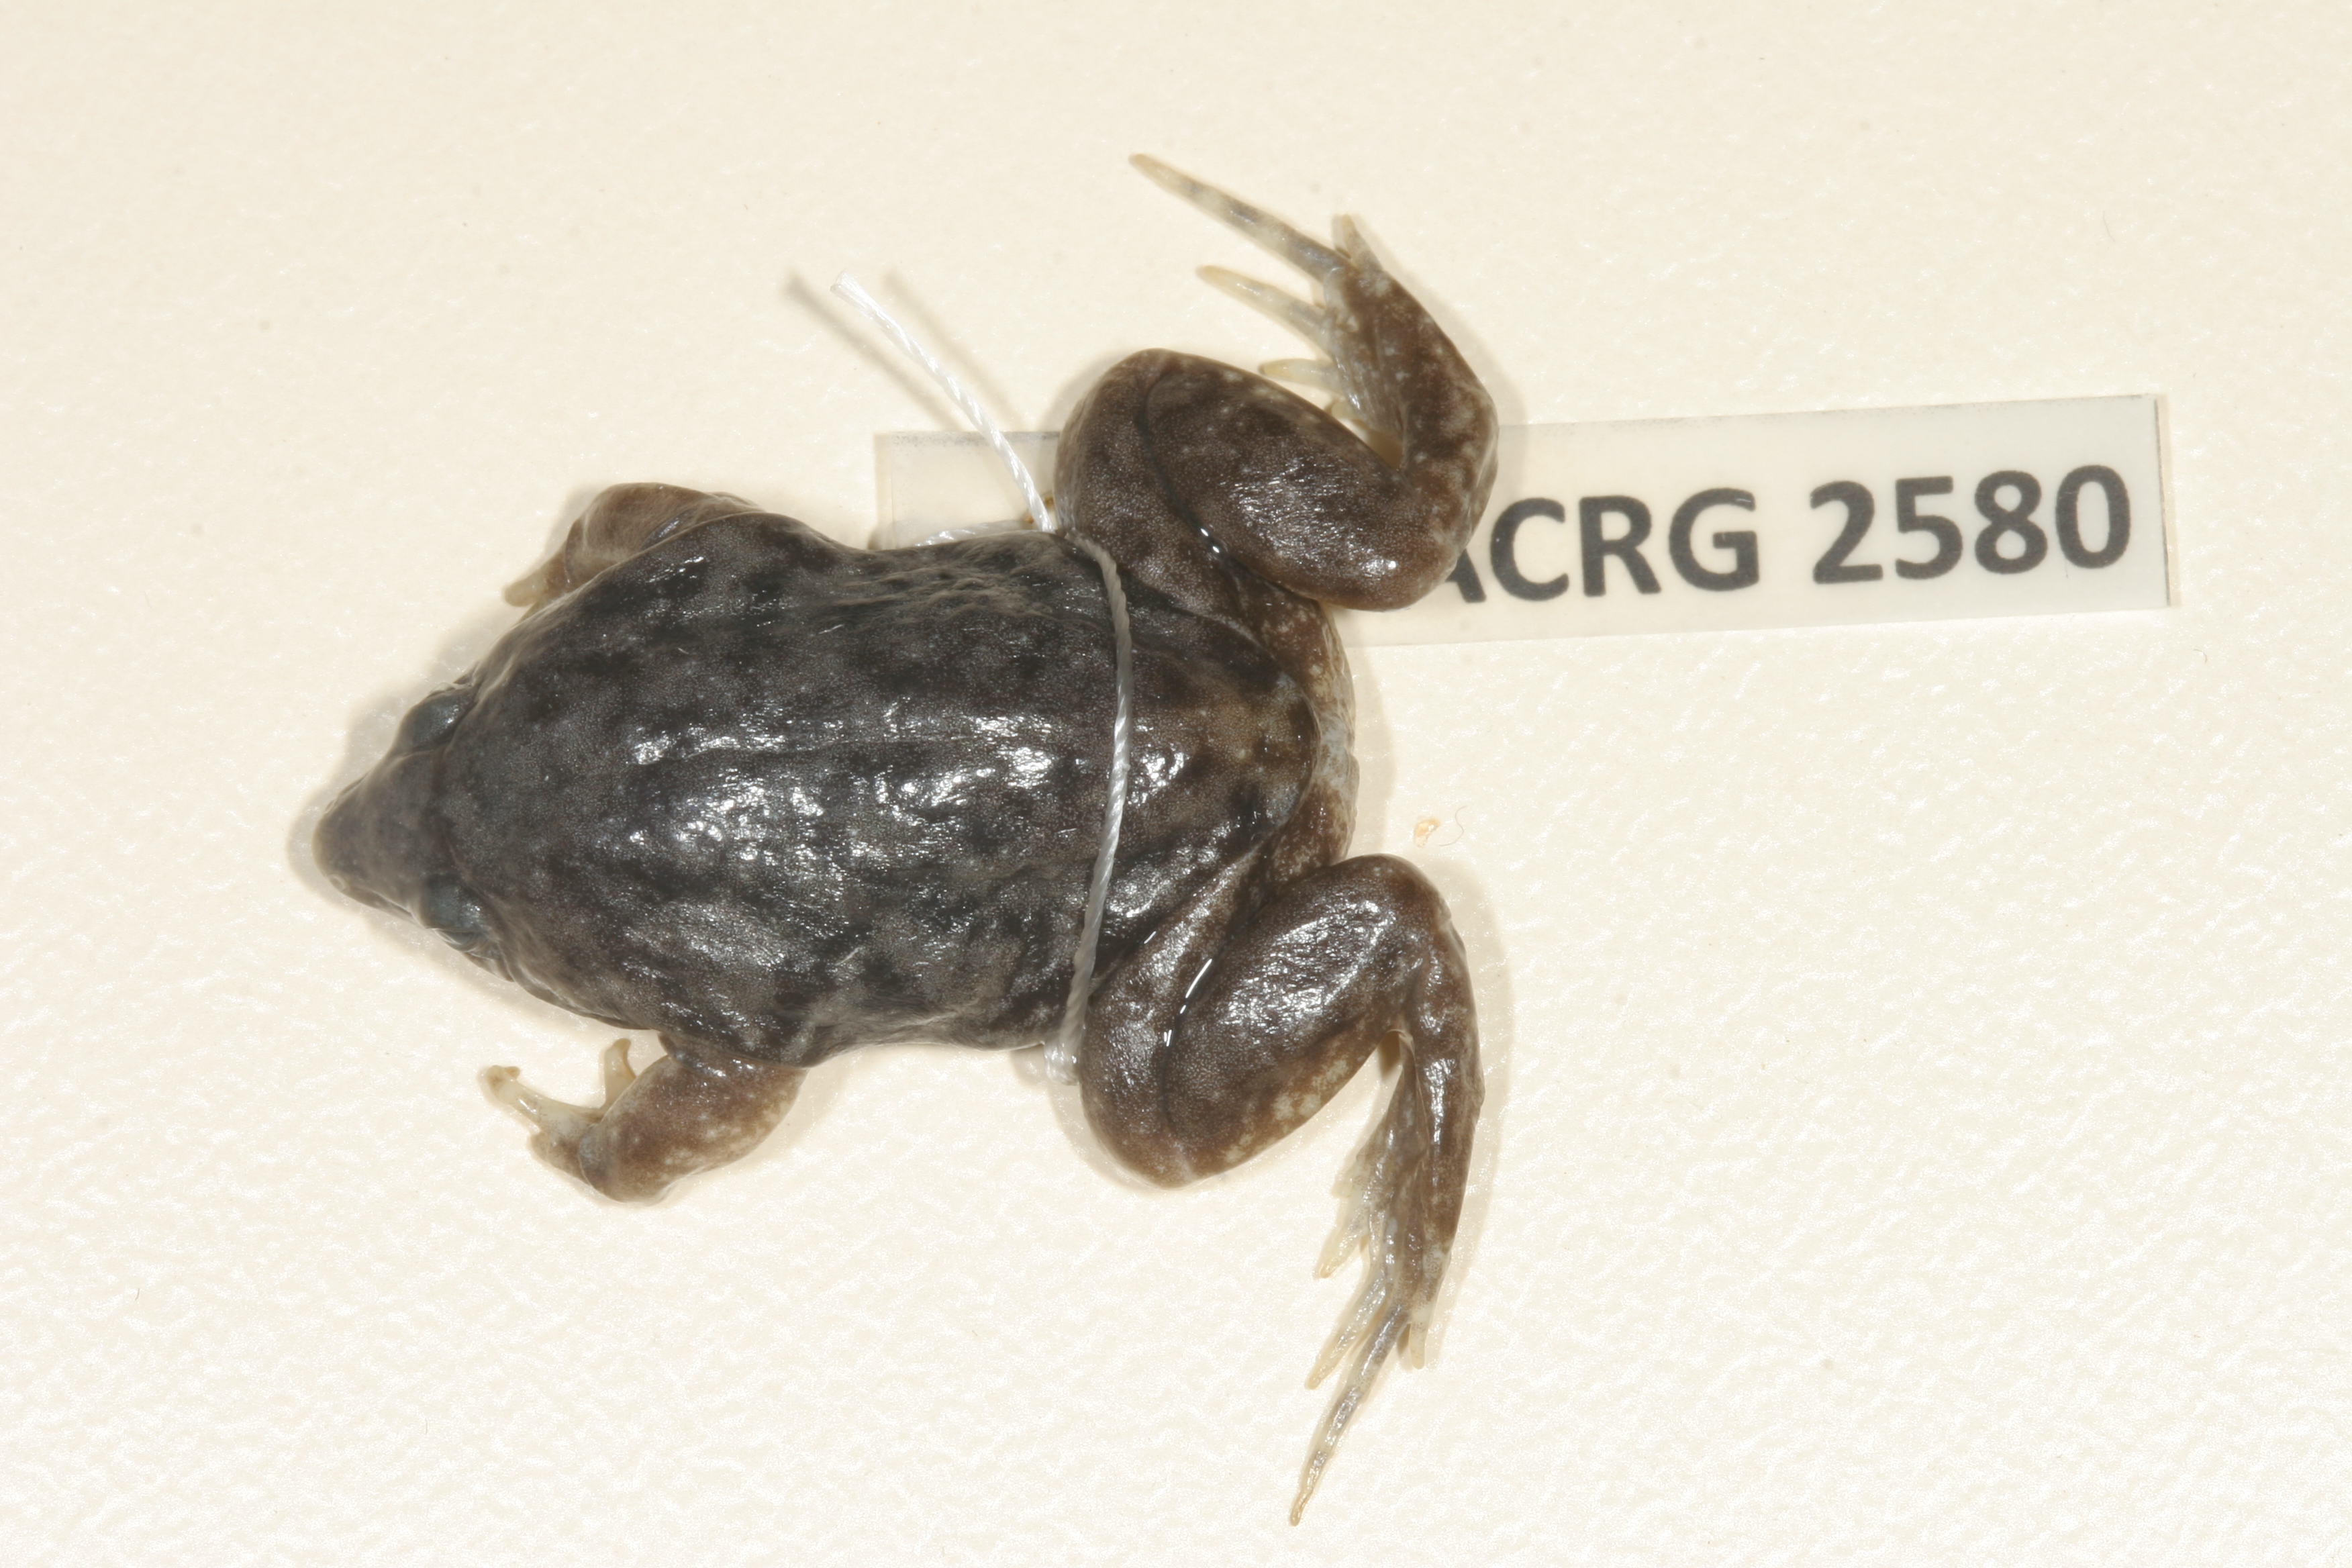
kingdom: Animalia
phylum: Chordata
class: Amphibia
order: Anura
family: Hemisotidae
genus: Hemisus
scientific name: Hemisus marmoratus
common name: Mottled shovel-nosed frog
